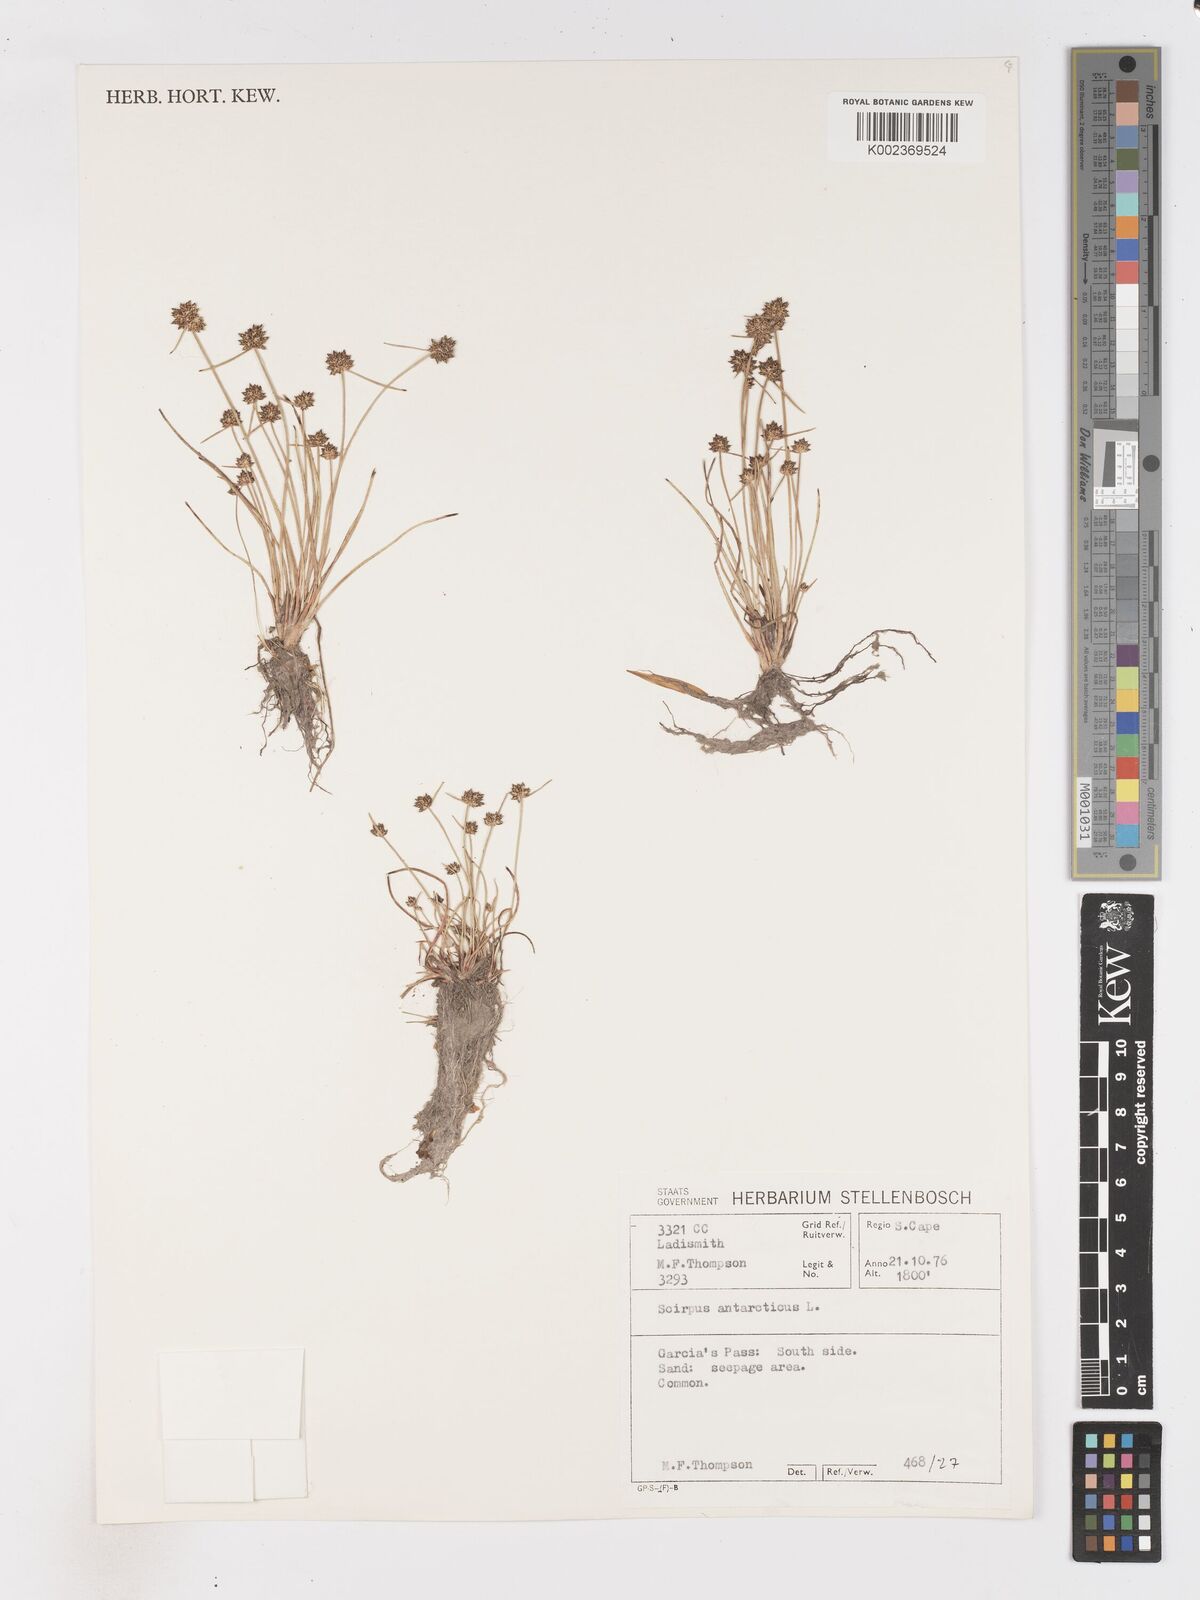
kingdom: Plantae
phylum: Tracheophyta
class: Liliopsida
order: Poales
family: Cyperaceae
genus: Isolepis
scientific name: Isolepis antarctica
